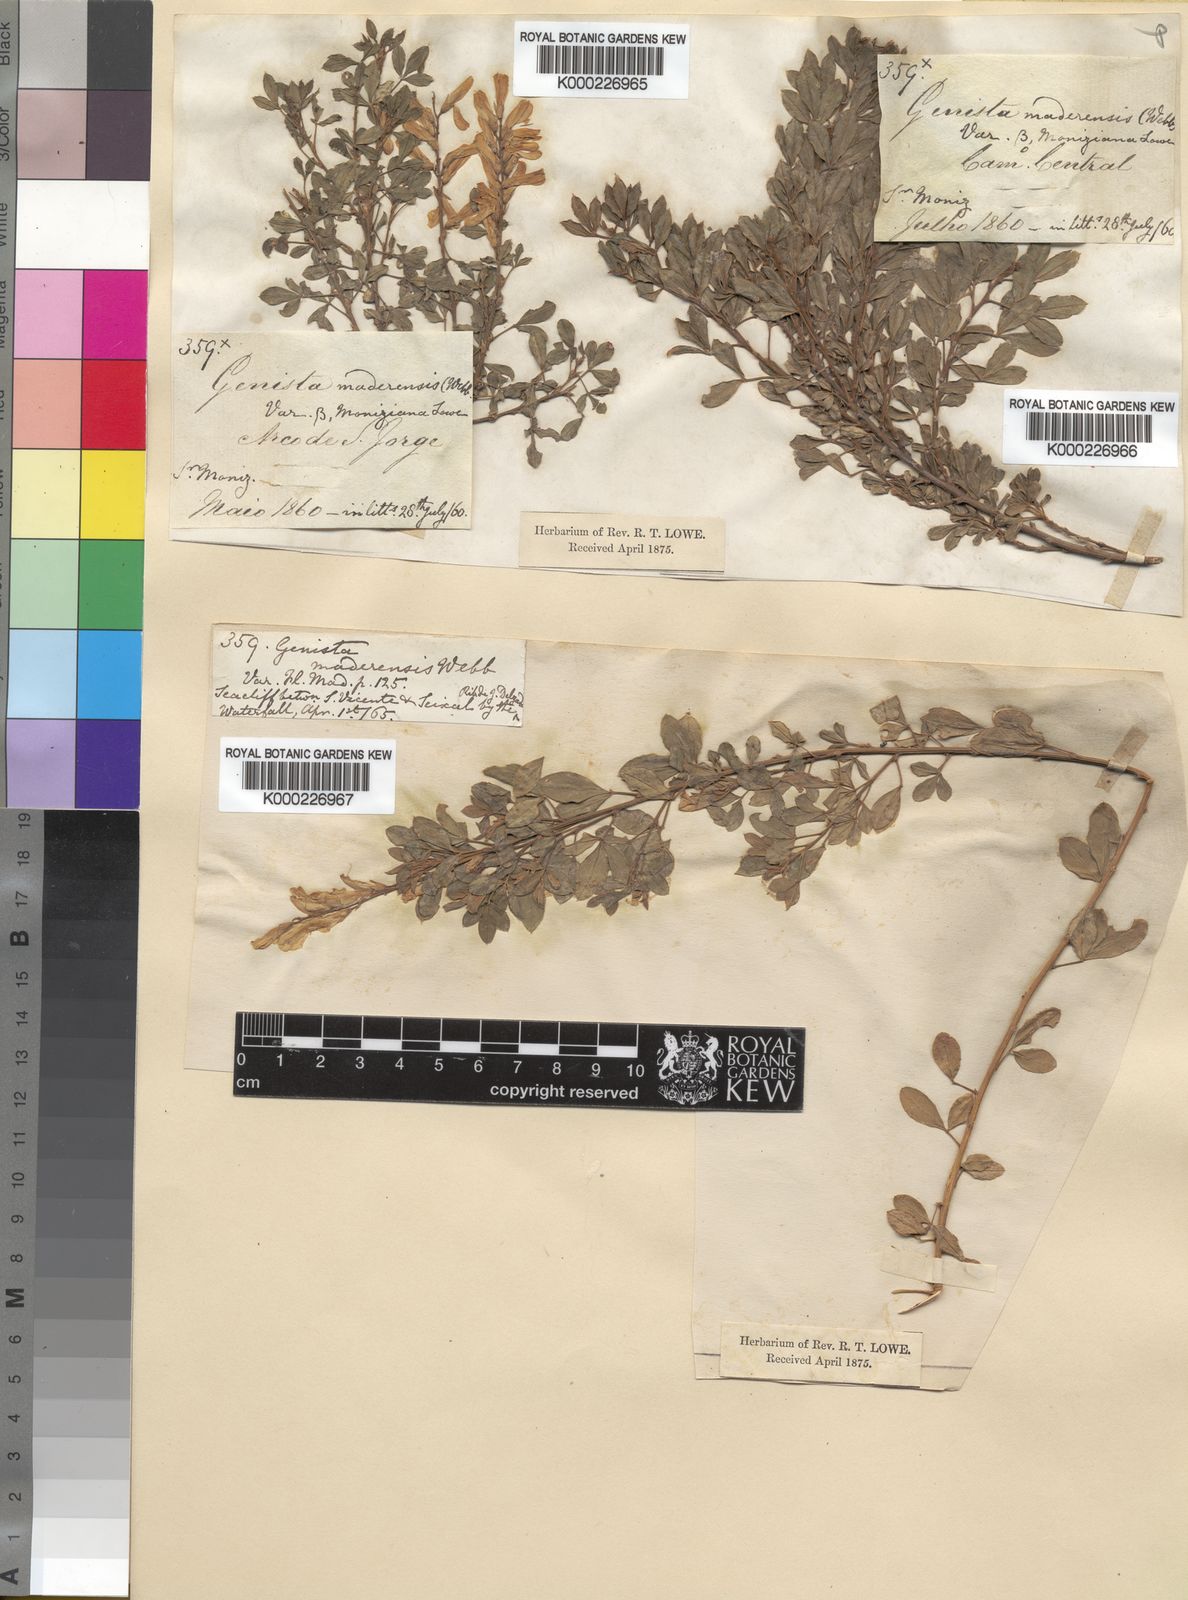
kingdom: Plantae
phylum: Tracheophyta
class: Magnoliopsida
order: Fabales
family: Fabaceae
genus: Genista
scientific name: Genista maderensis
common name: Madeira dyer's greenweed
